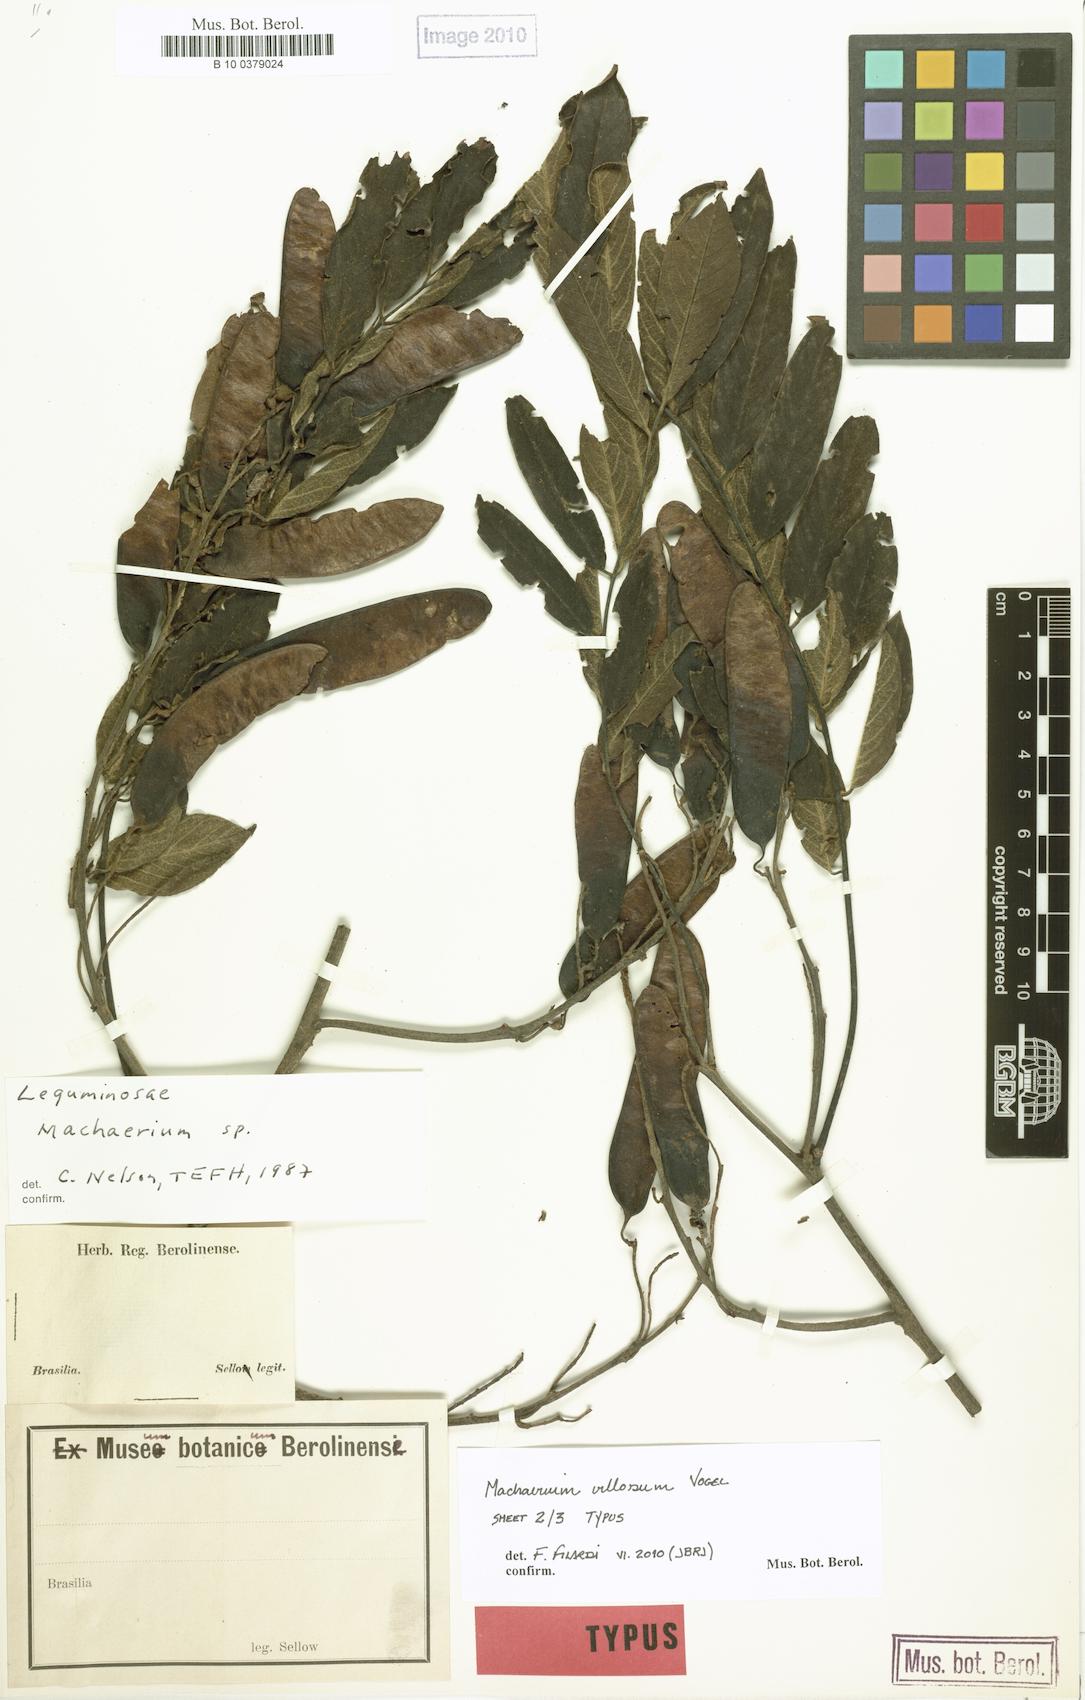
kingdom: Plantae
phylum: Tracheophyta
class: Magnoliopsida
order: Fabales
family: Fabaceae
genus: Machaerium
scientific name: Machaerium villosum
